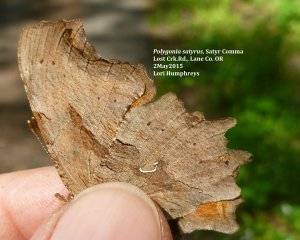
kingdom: Animalia
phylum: Arthropoda
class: Insecta
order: Lepidoptera
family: Nymphalidae
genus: Polygonia
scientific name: Polygonia satyrus
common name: Satyr Comma
